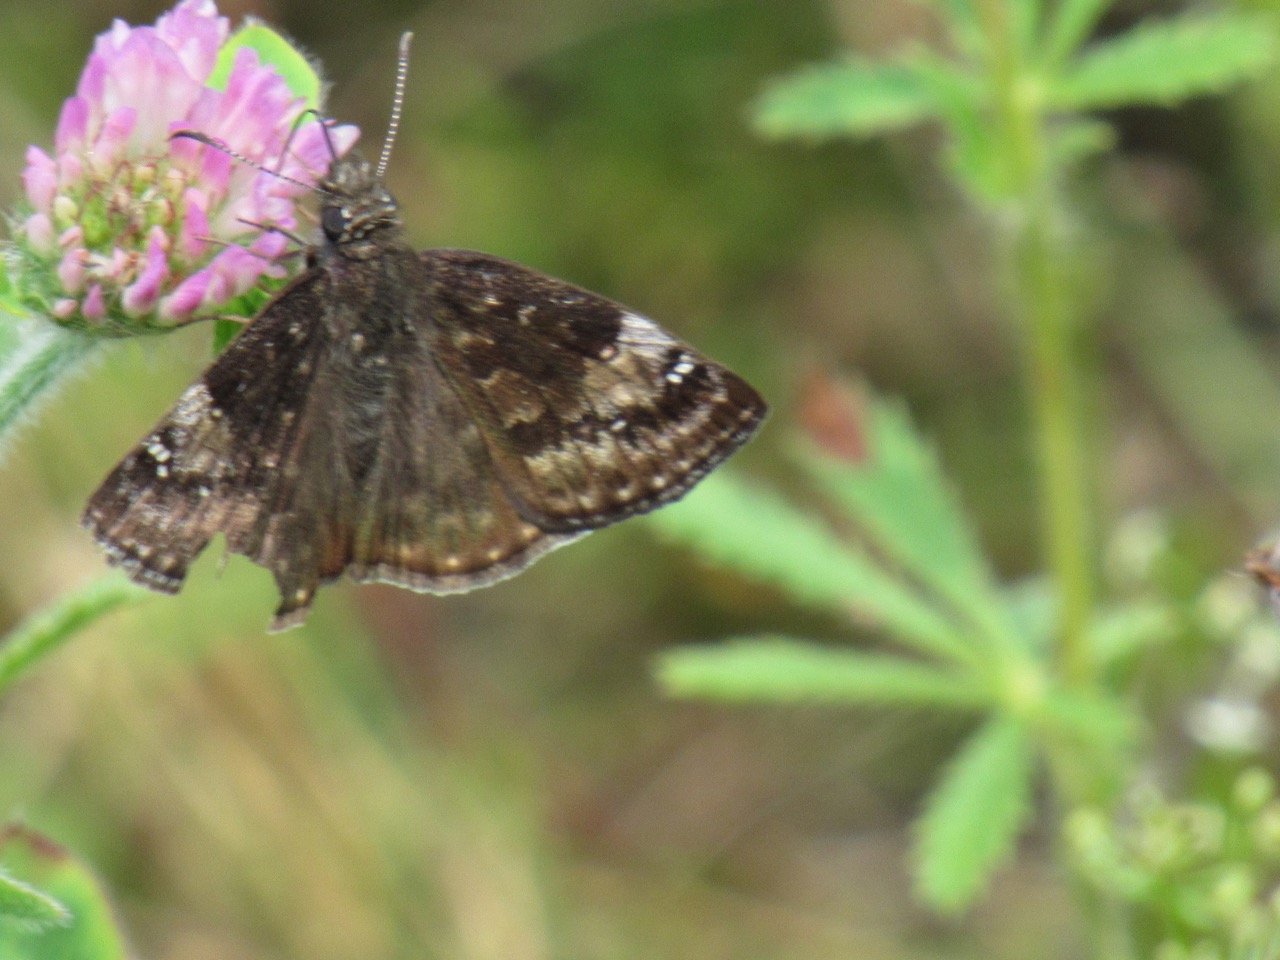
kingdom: Animalia
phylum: Arthropoda
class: Insecta
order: Lepidoptera
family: Hesperiidae
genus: Gesta
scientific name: Gesta
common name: Wild Indigo Duskywing
